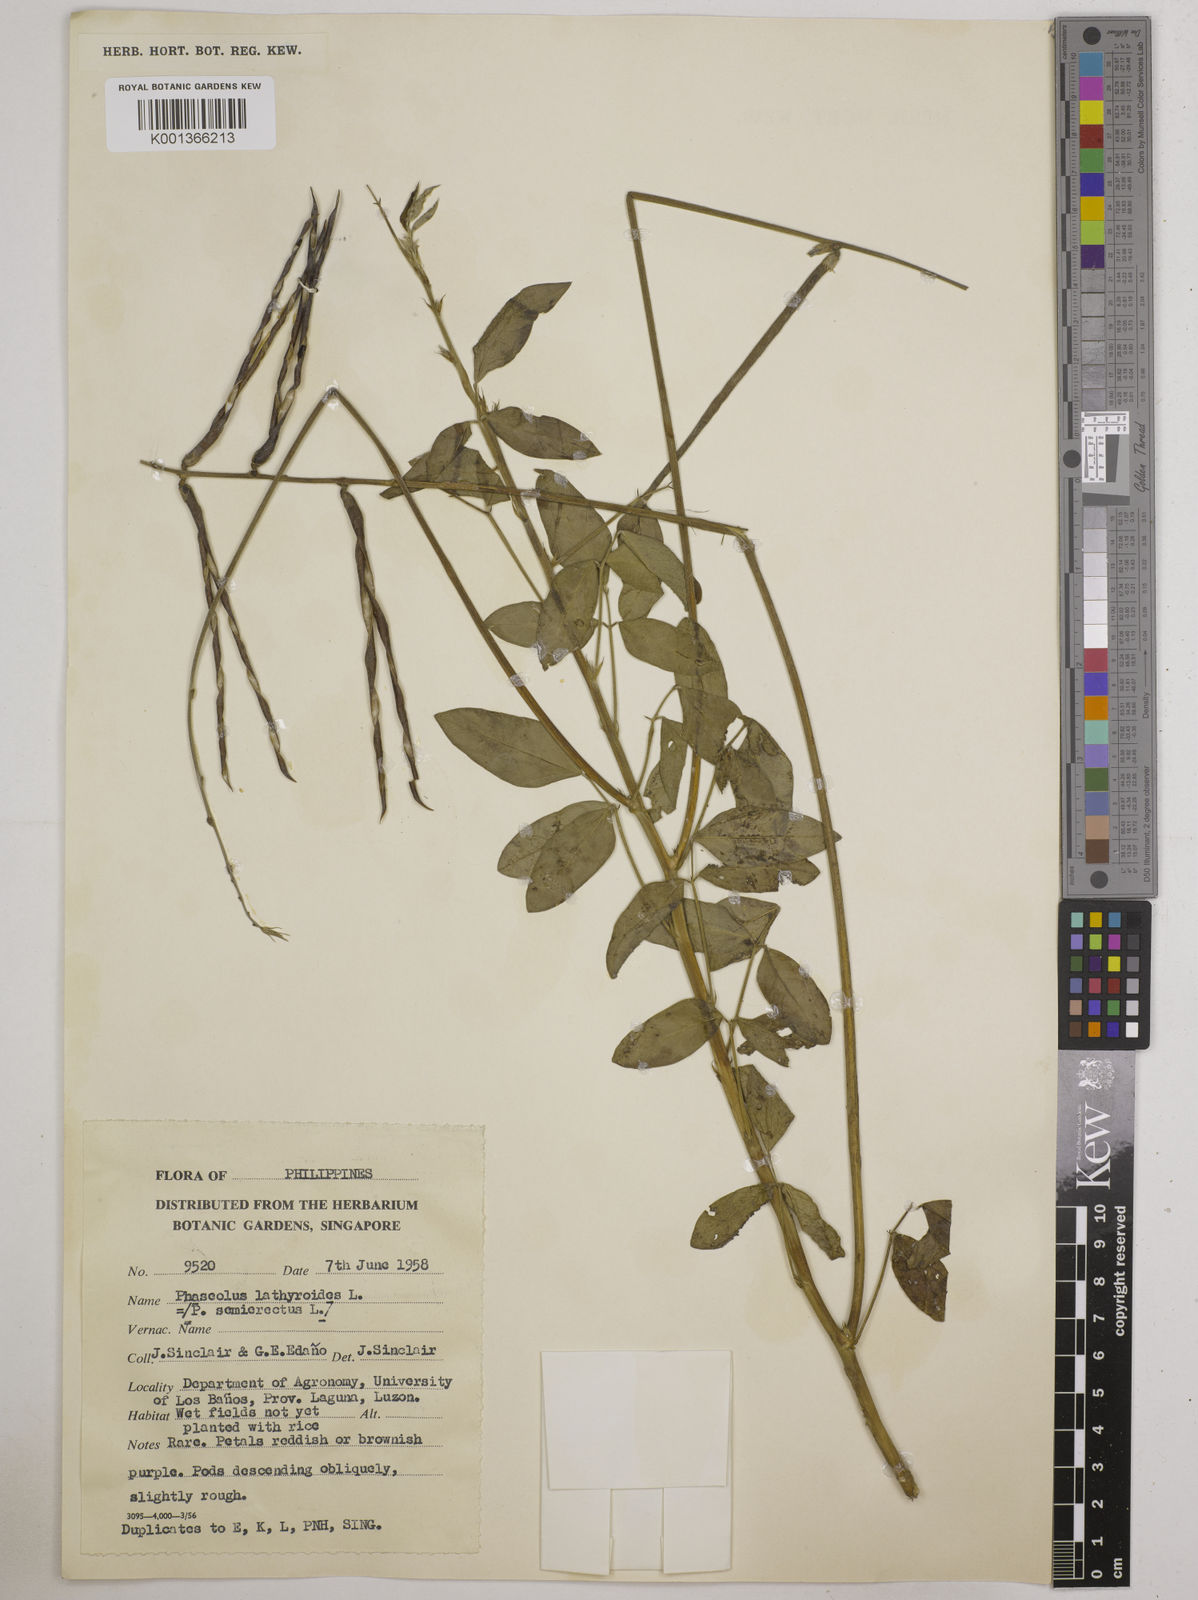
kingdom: Plantae
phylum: Tracheophyta
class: Magnoliopsida
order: Fabales
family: Fabaceae
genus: Macroptilium
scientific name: Macroptilium lathyroides
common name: Wild bushbean
